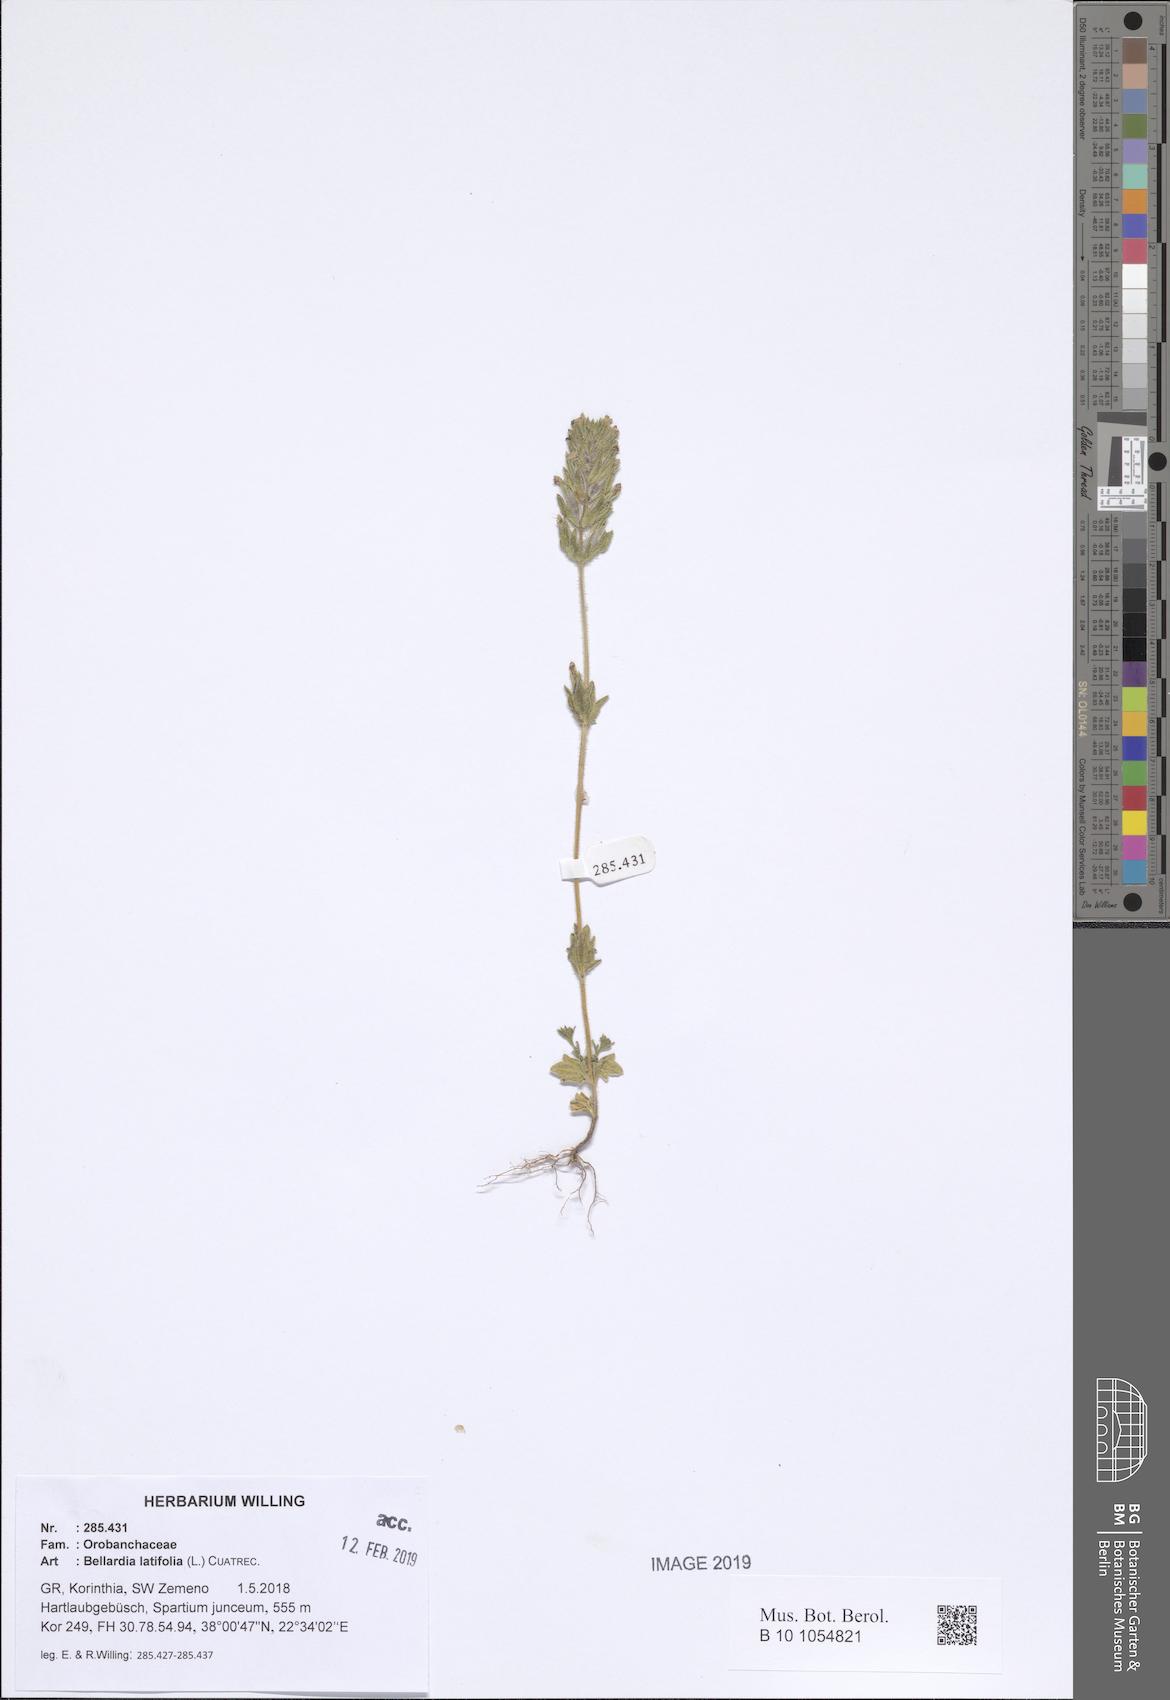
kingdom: Plantae
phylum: Tracheophyta
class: Magnoliopsida
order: Lamiales
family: Orobanchaceae
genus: Parentucellia
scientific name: Parentucellia latifolia
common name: Broadleaf glandweed
